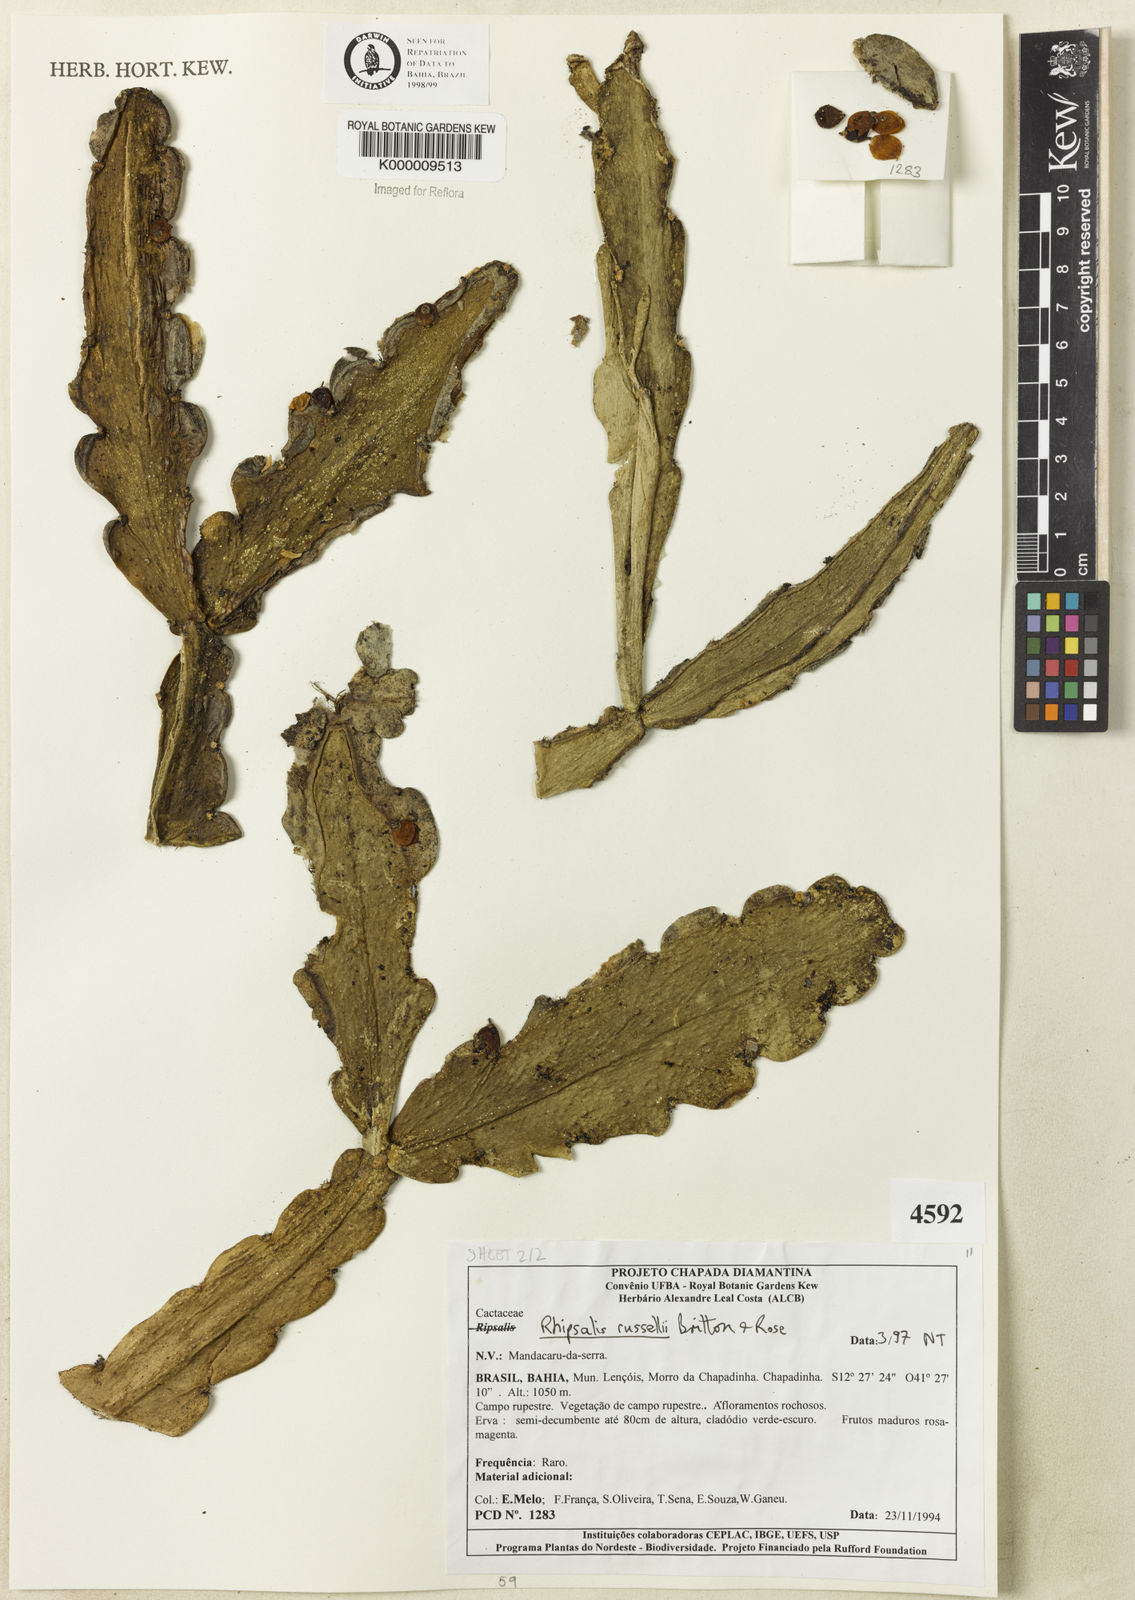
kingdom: Plantae
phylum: Tracheophyta
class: Magnoliopsida
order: Caryophyllales
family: Cactaceae
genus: Rhipsalis
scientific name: Rhipsalis russellii
